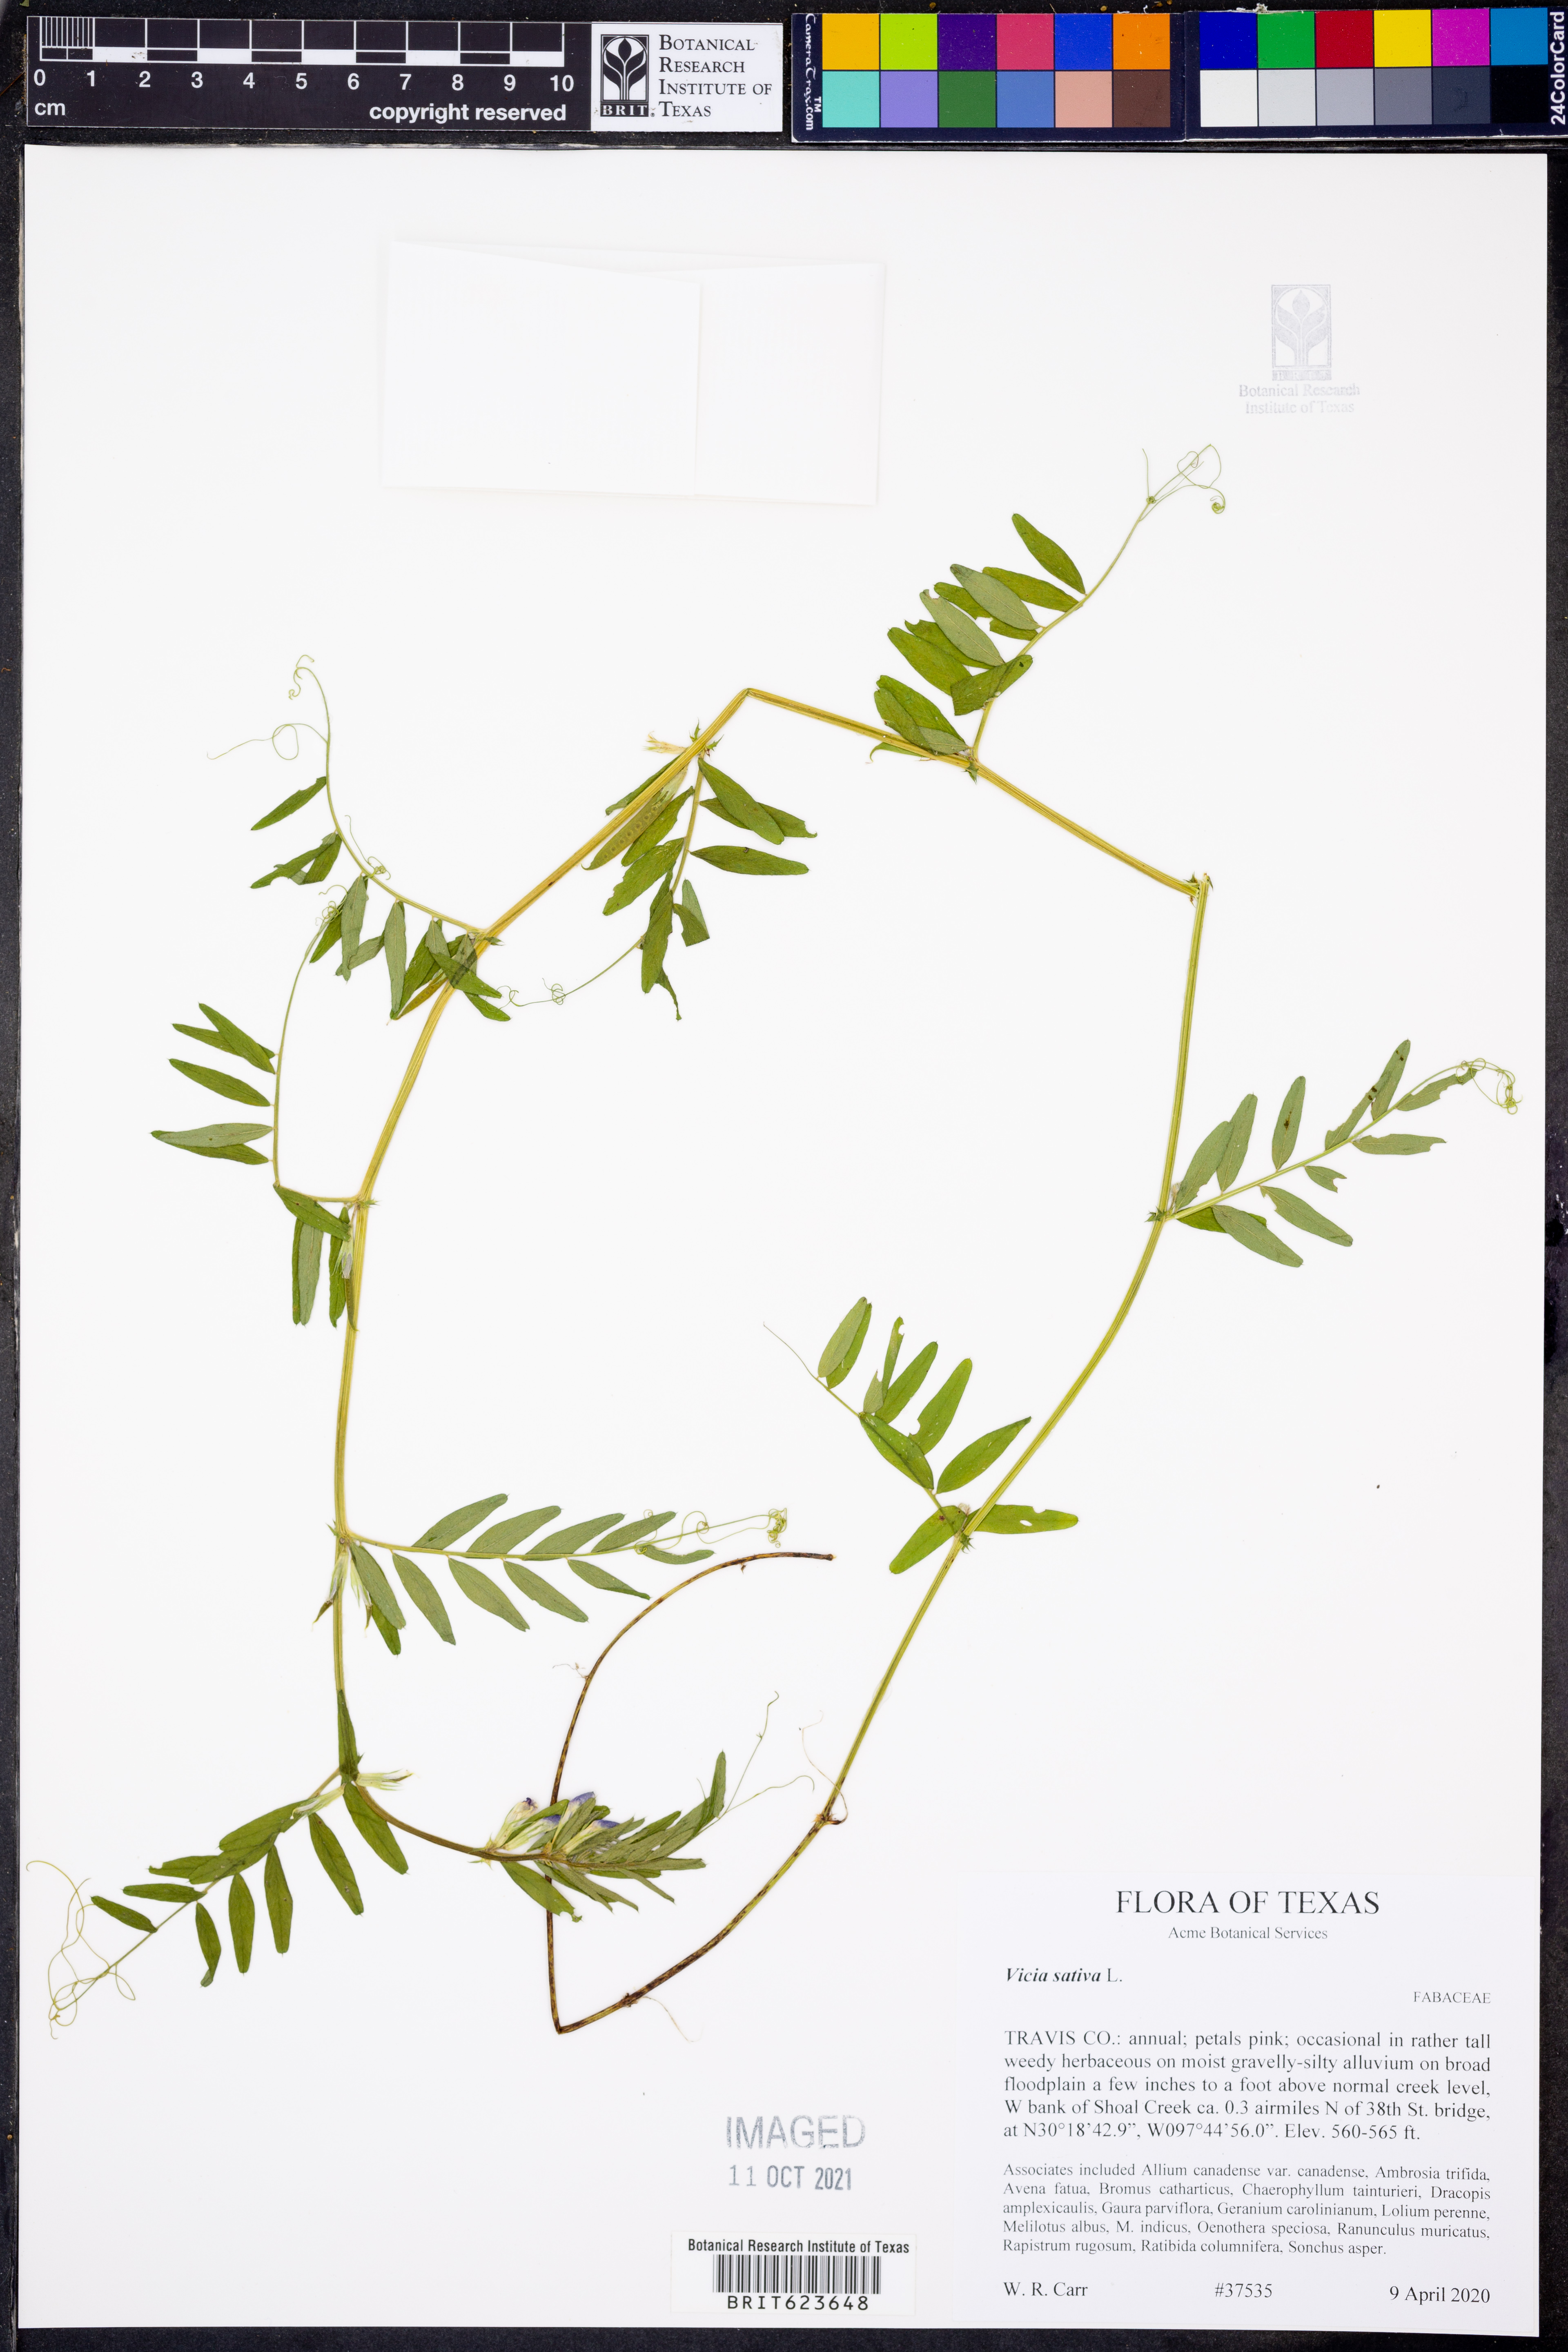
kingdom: Plantae
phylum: Tracheophyta
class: Magnoliopsida
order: Fabales
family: Fabaceae
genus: Vicia
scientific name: Vicia sativa
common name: Garden vetch
